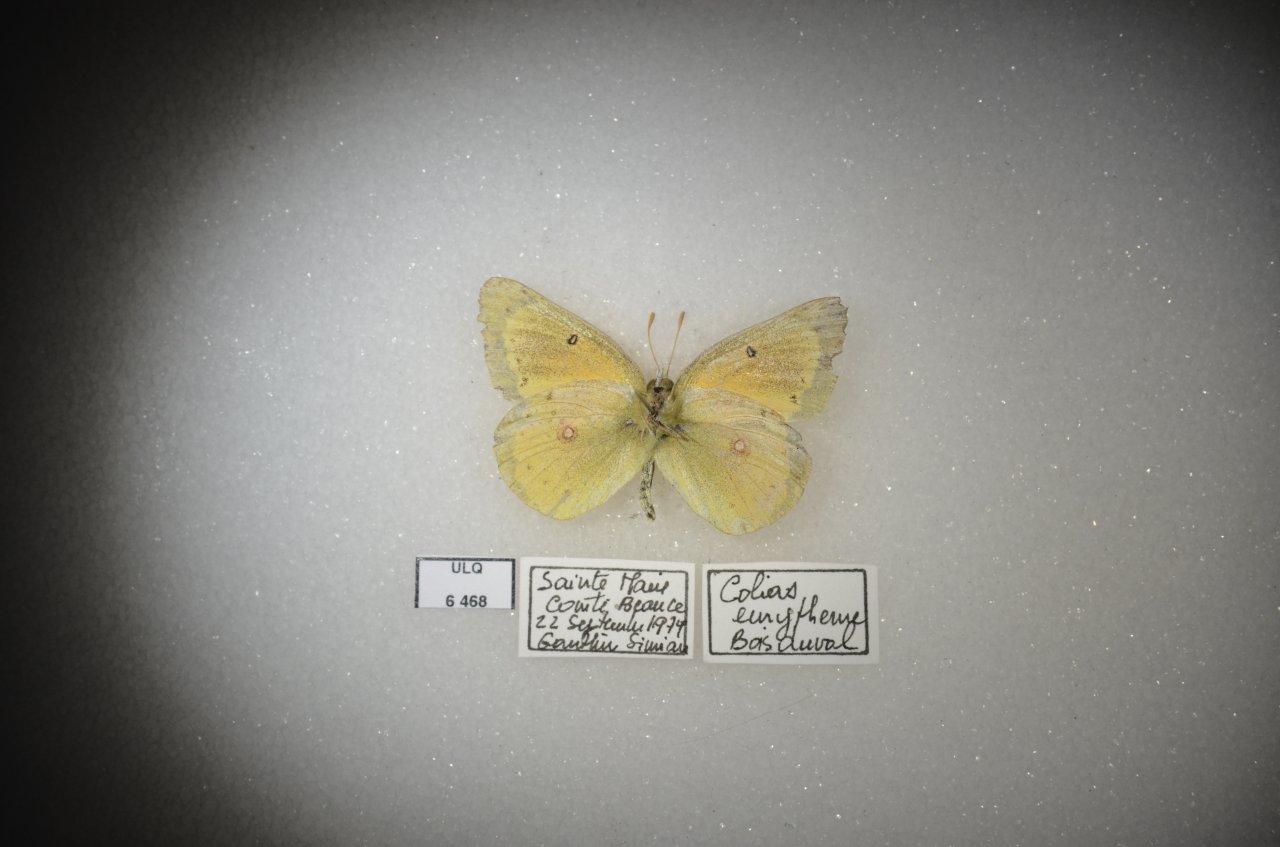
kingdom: Animalia
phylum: Arthropoda
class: Insecta
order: Lepidoptera
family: Pieridae
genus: Colias
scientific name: Colias eurytheme
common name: Orange Sulphur
